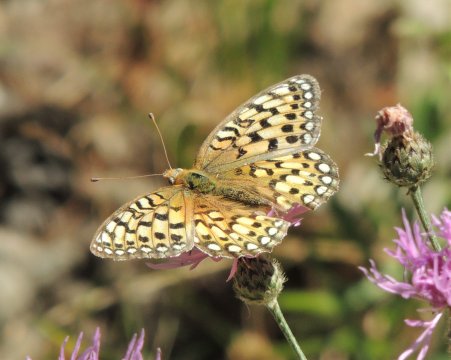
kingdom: Animalia
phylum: Arthropoda
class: Insecta
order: Lepidoptera
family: Nymphalidae
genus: Speyeria
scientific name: Speyeria callippe
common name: Callippe Fritillary
